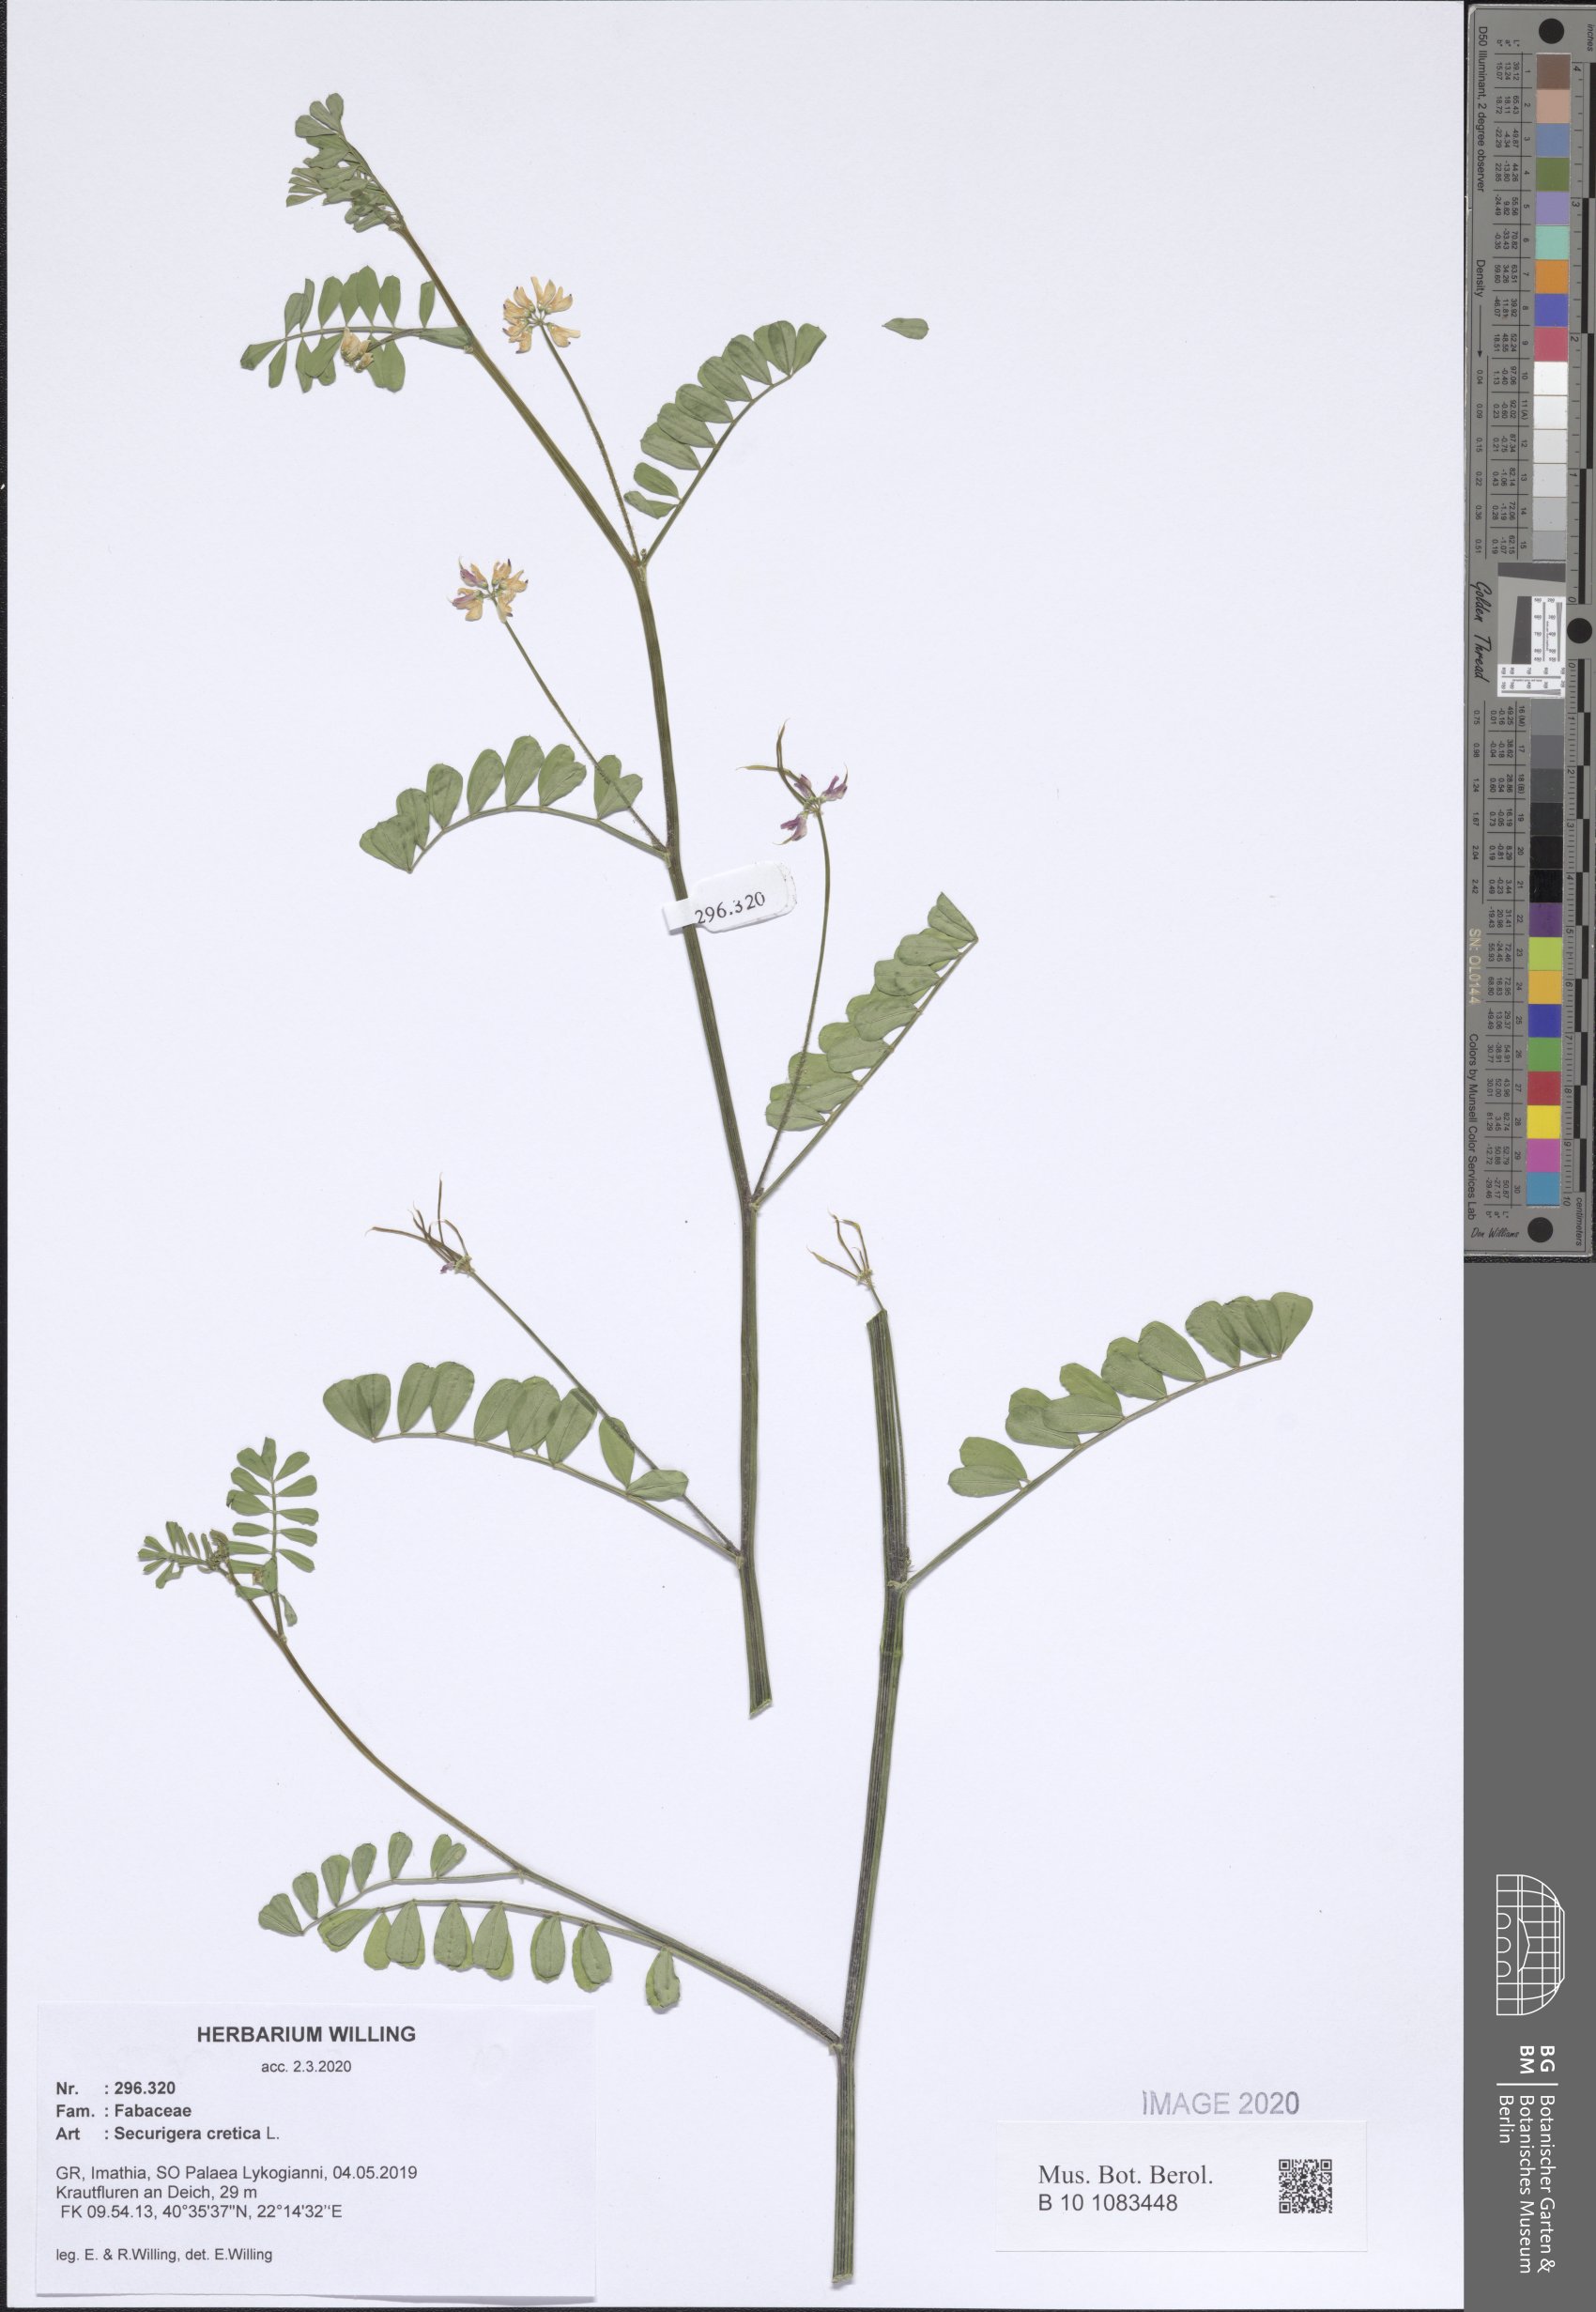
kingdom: Plantae
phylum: Tracheophyta
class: Magnoliopsida
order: Fabales
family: Fabaceae
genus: Coronilla
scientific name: Coronilla cretica
